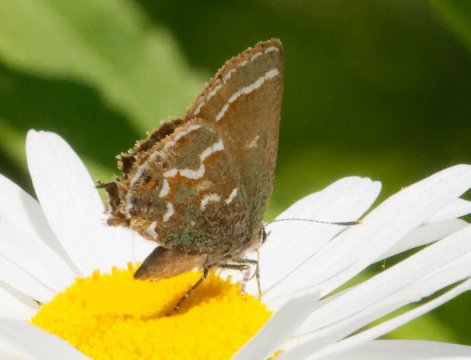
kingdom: Animalia
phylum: Arthropoda
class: Insecta
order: Lepidoptera
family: Lycaenidae
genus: Mitoura
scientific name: Mitoura gryneus
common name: Juniper Hairstreak
